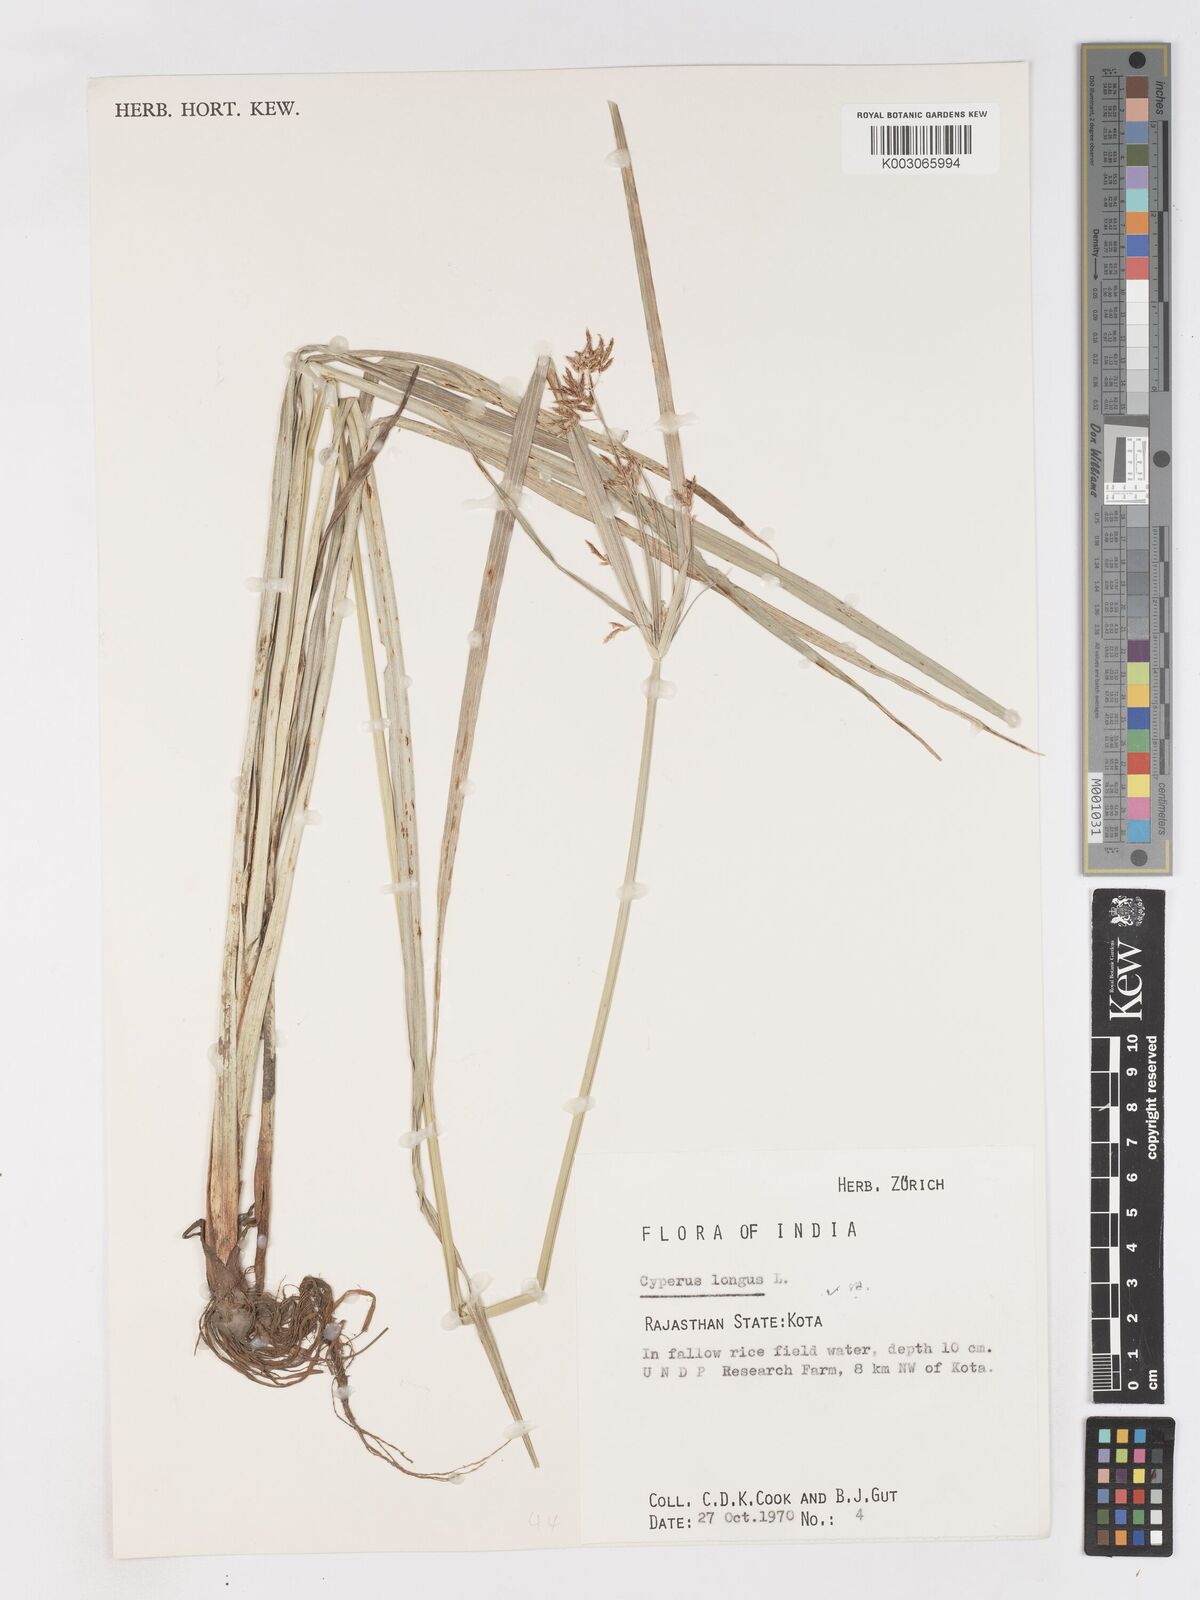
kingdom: Plantae
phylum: Tracheophyta
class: Liliopsida
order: Poales
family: Cyperaceae
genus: Cyperus
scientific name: Cyperus longus
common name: Galingale
